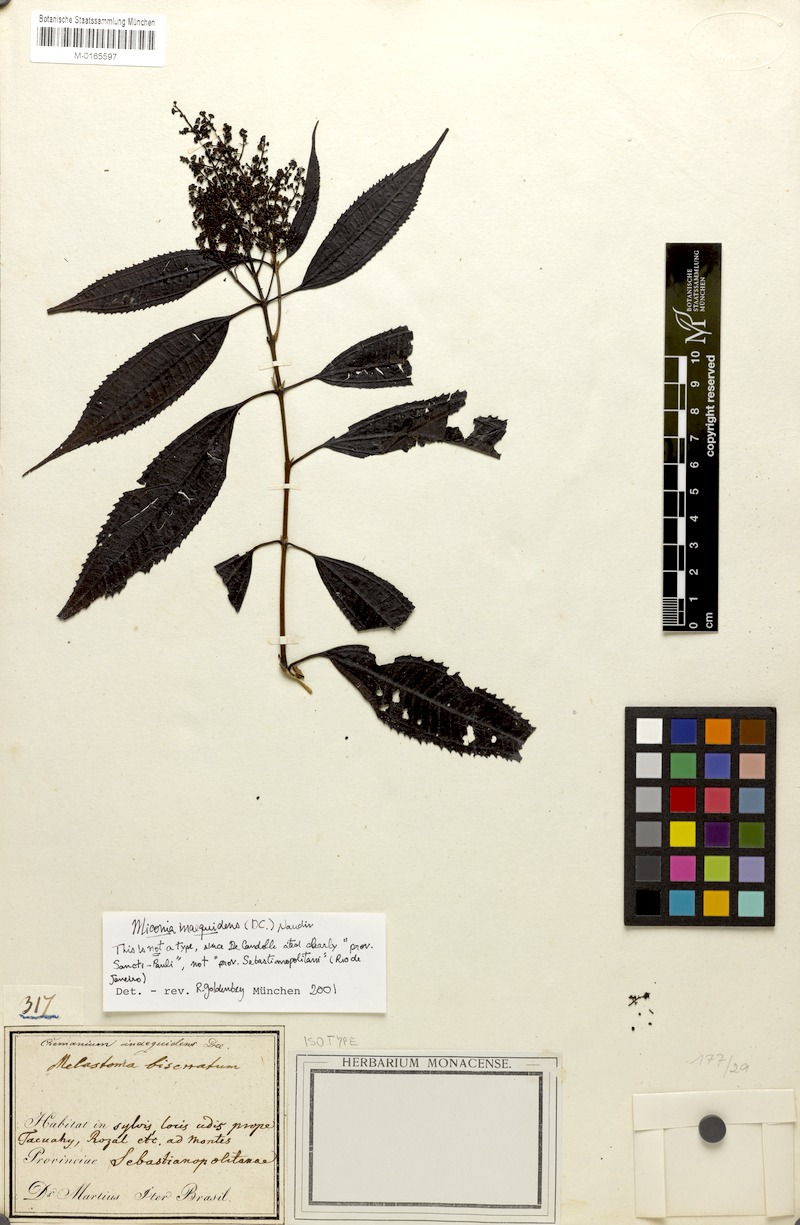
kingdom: Plantae
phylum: Tracheophyta
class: Magnoliopsida
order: Myrtales
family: Melastomataceae
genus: Miconia
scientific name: Miconia inaequidens
